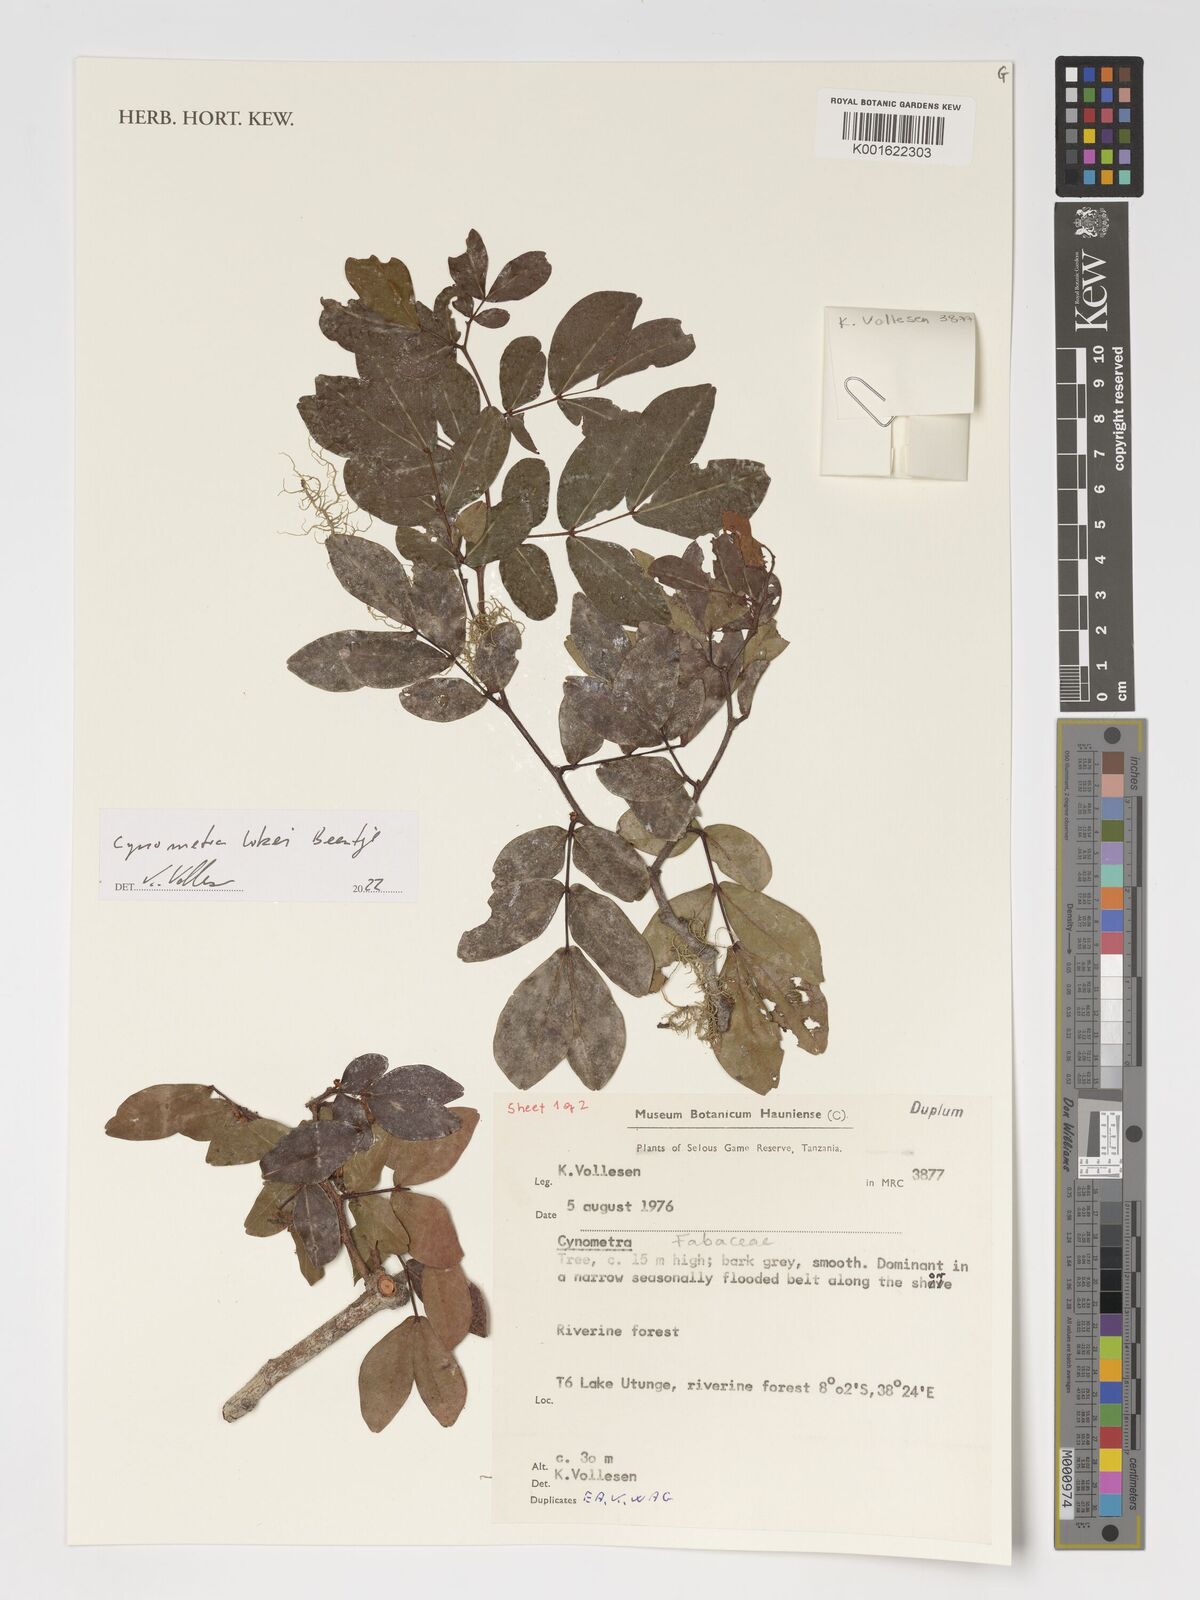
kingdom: Plantae
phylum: Tracheophyta
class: Magnoliopsida
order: Fabales
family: Fabaceae
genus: Cynometra
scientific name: Cynometra lukei
